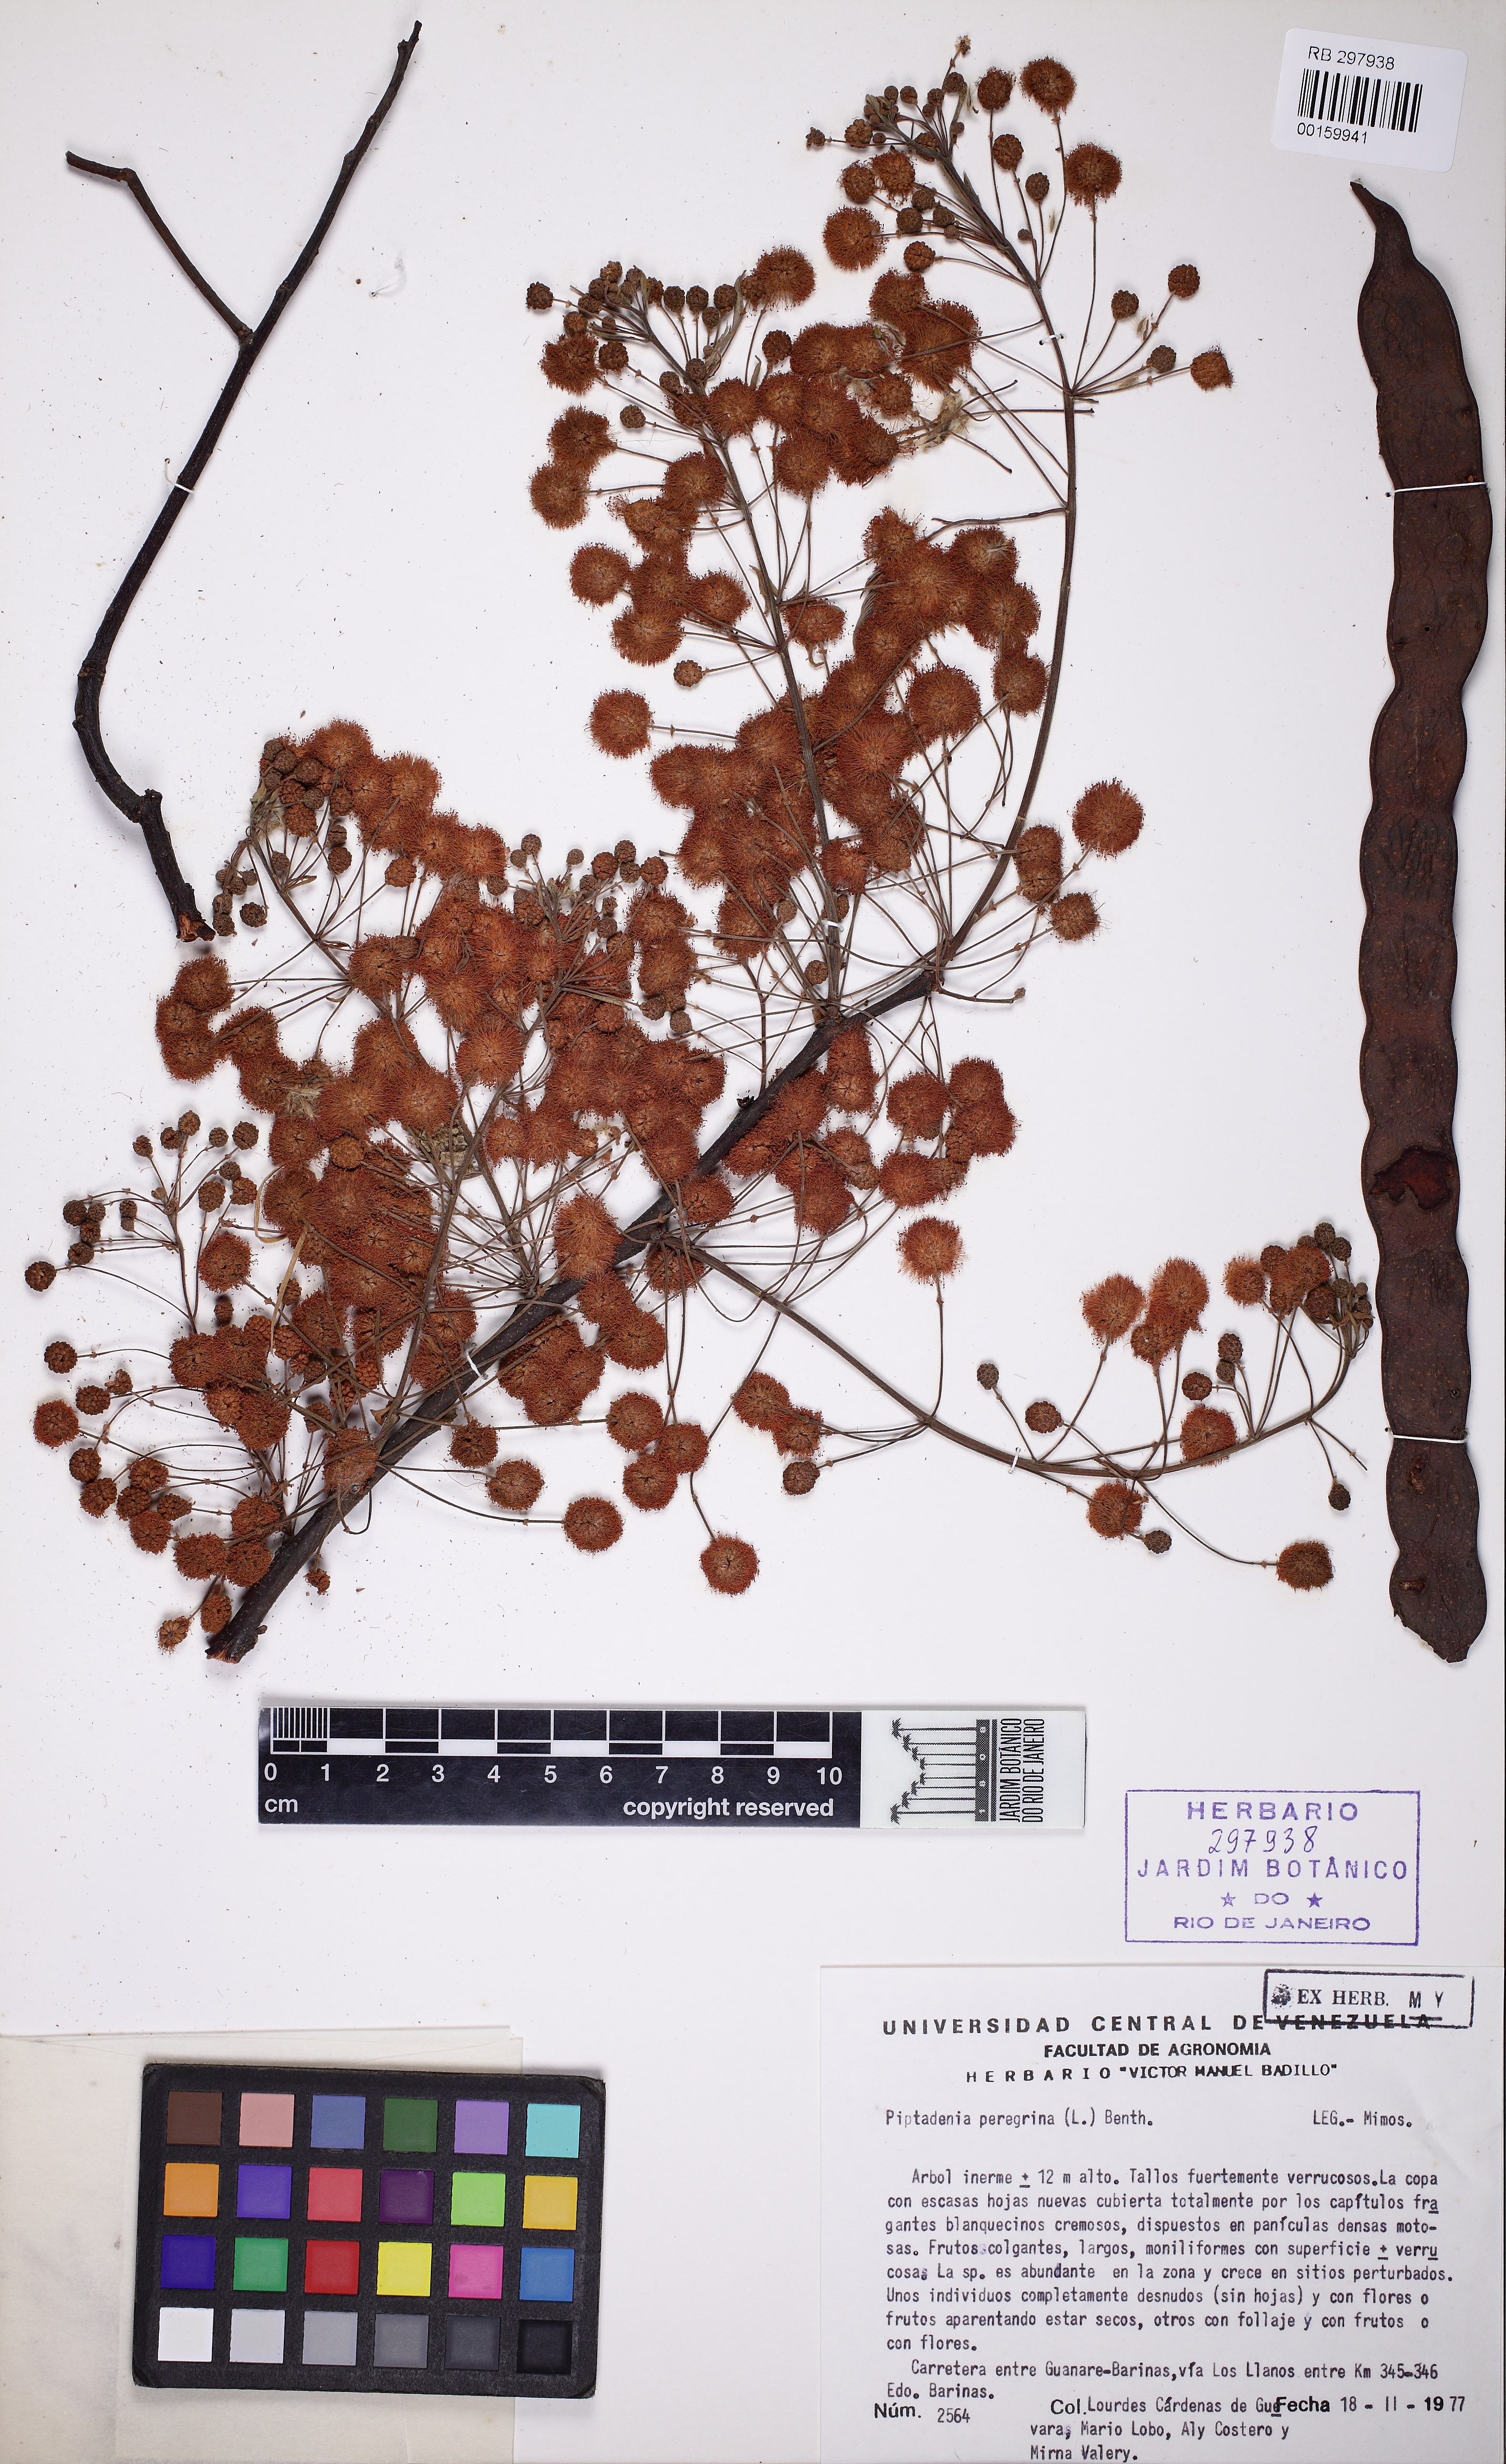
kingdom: Plantae
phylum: Tracheophyta
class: Magnoliopsida
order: Fabales
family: Fabaceae
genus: Anadenanthera
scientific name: Anadenanthera peregrina
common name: Cohoba
